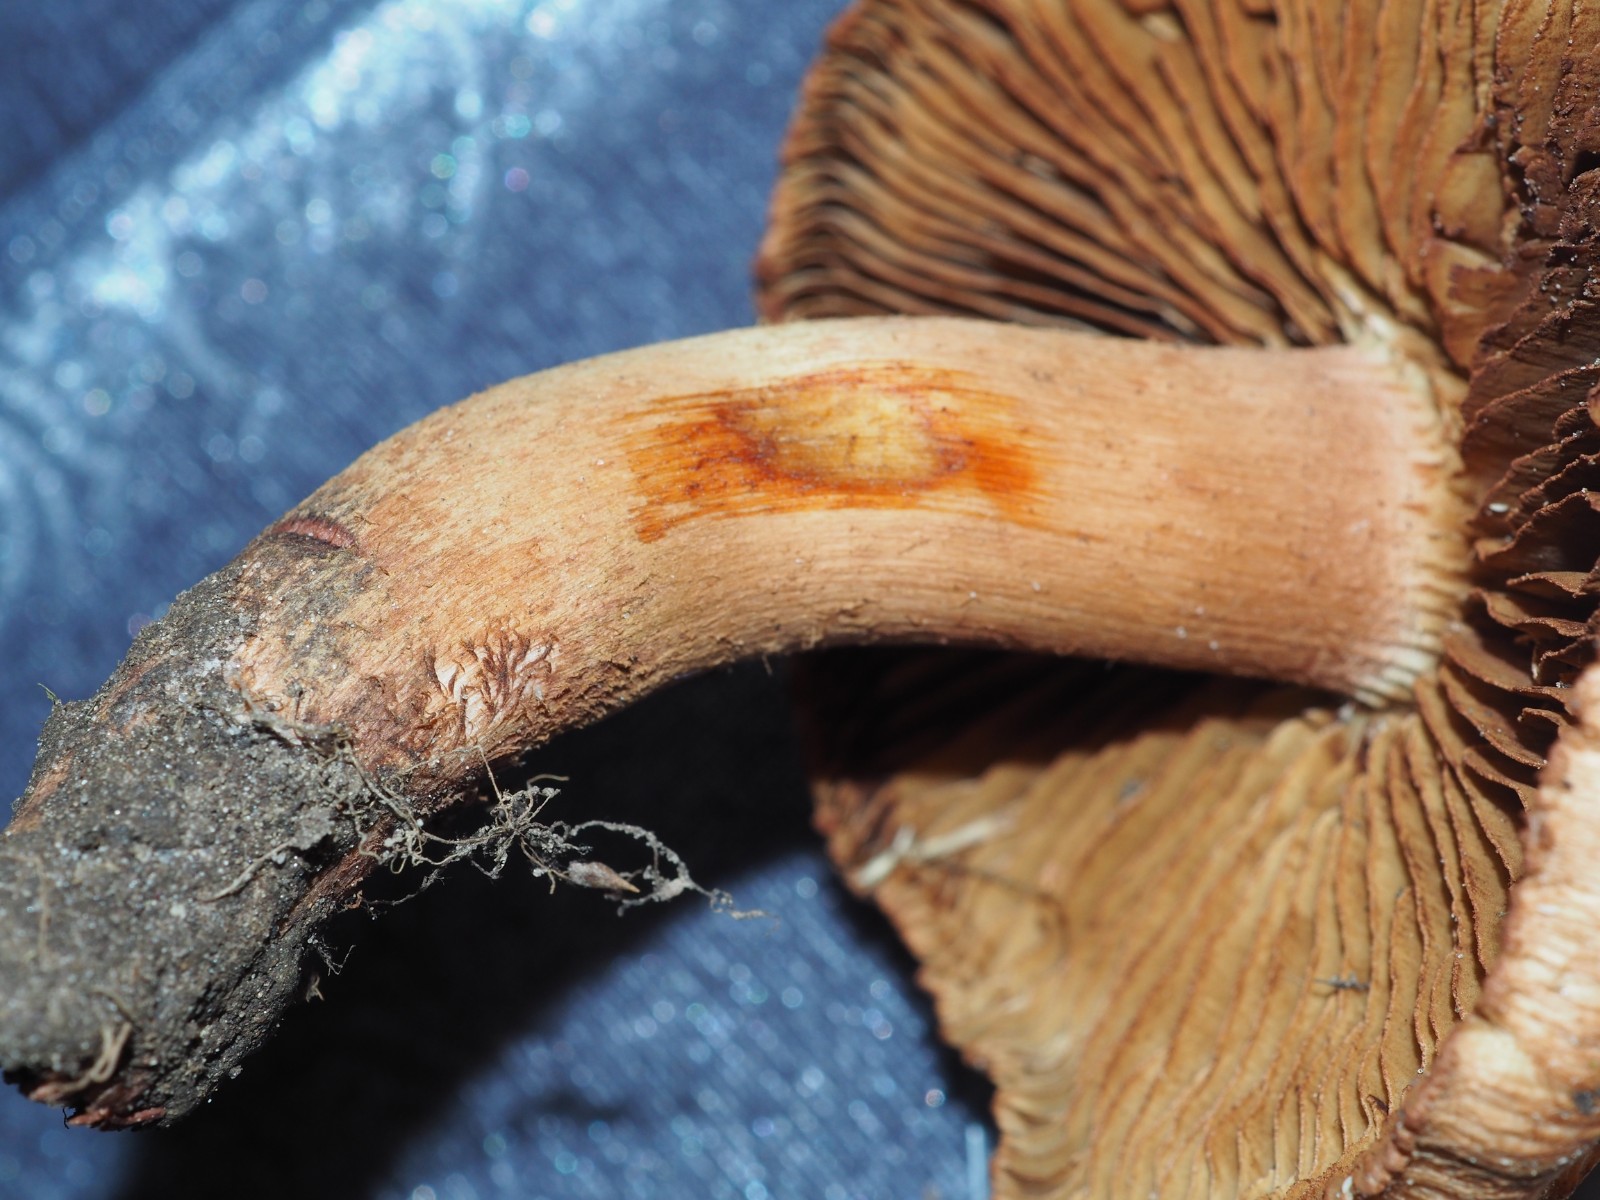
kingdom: Fungi
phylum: Basidiomycota
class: Agaricomycetes
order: Agaricales
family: Inocybaceae
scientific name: Inocybaceae
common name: trævlhatfamilien
